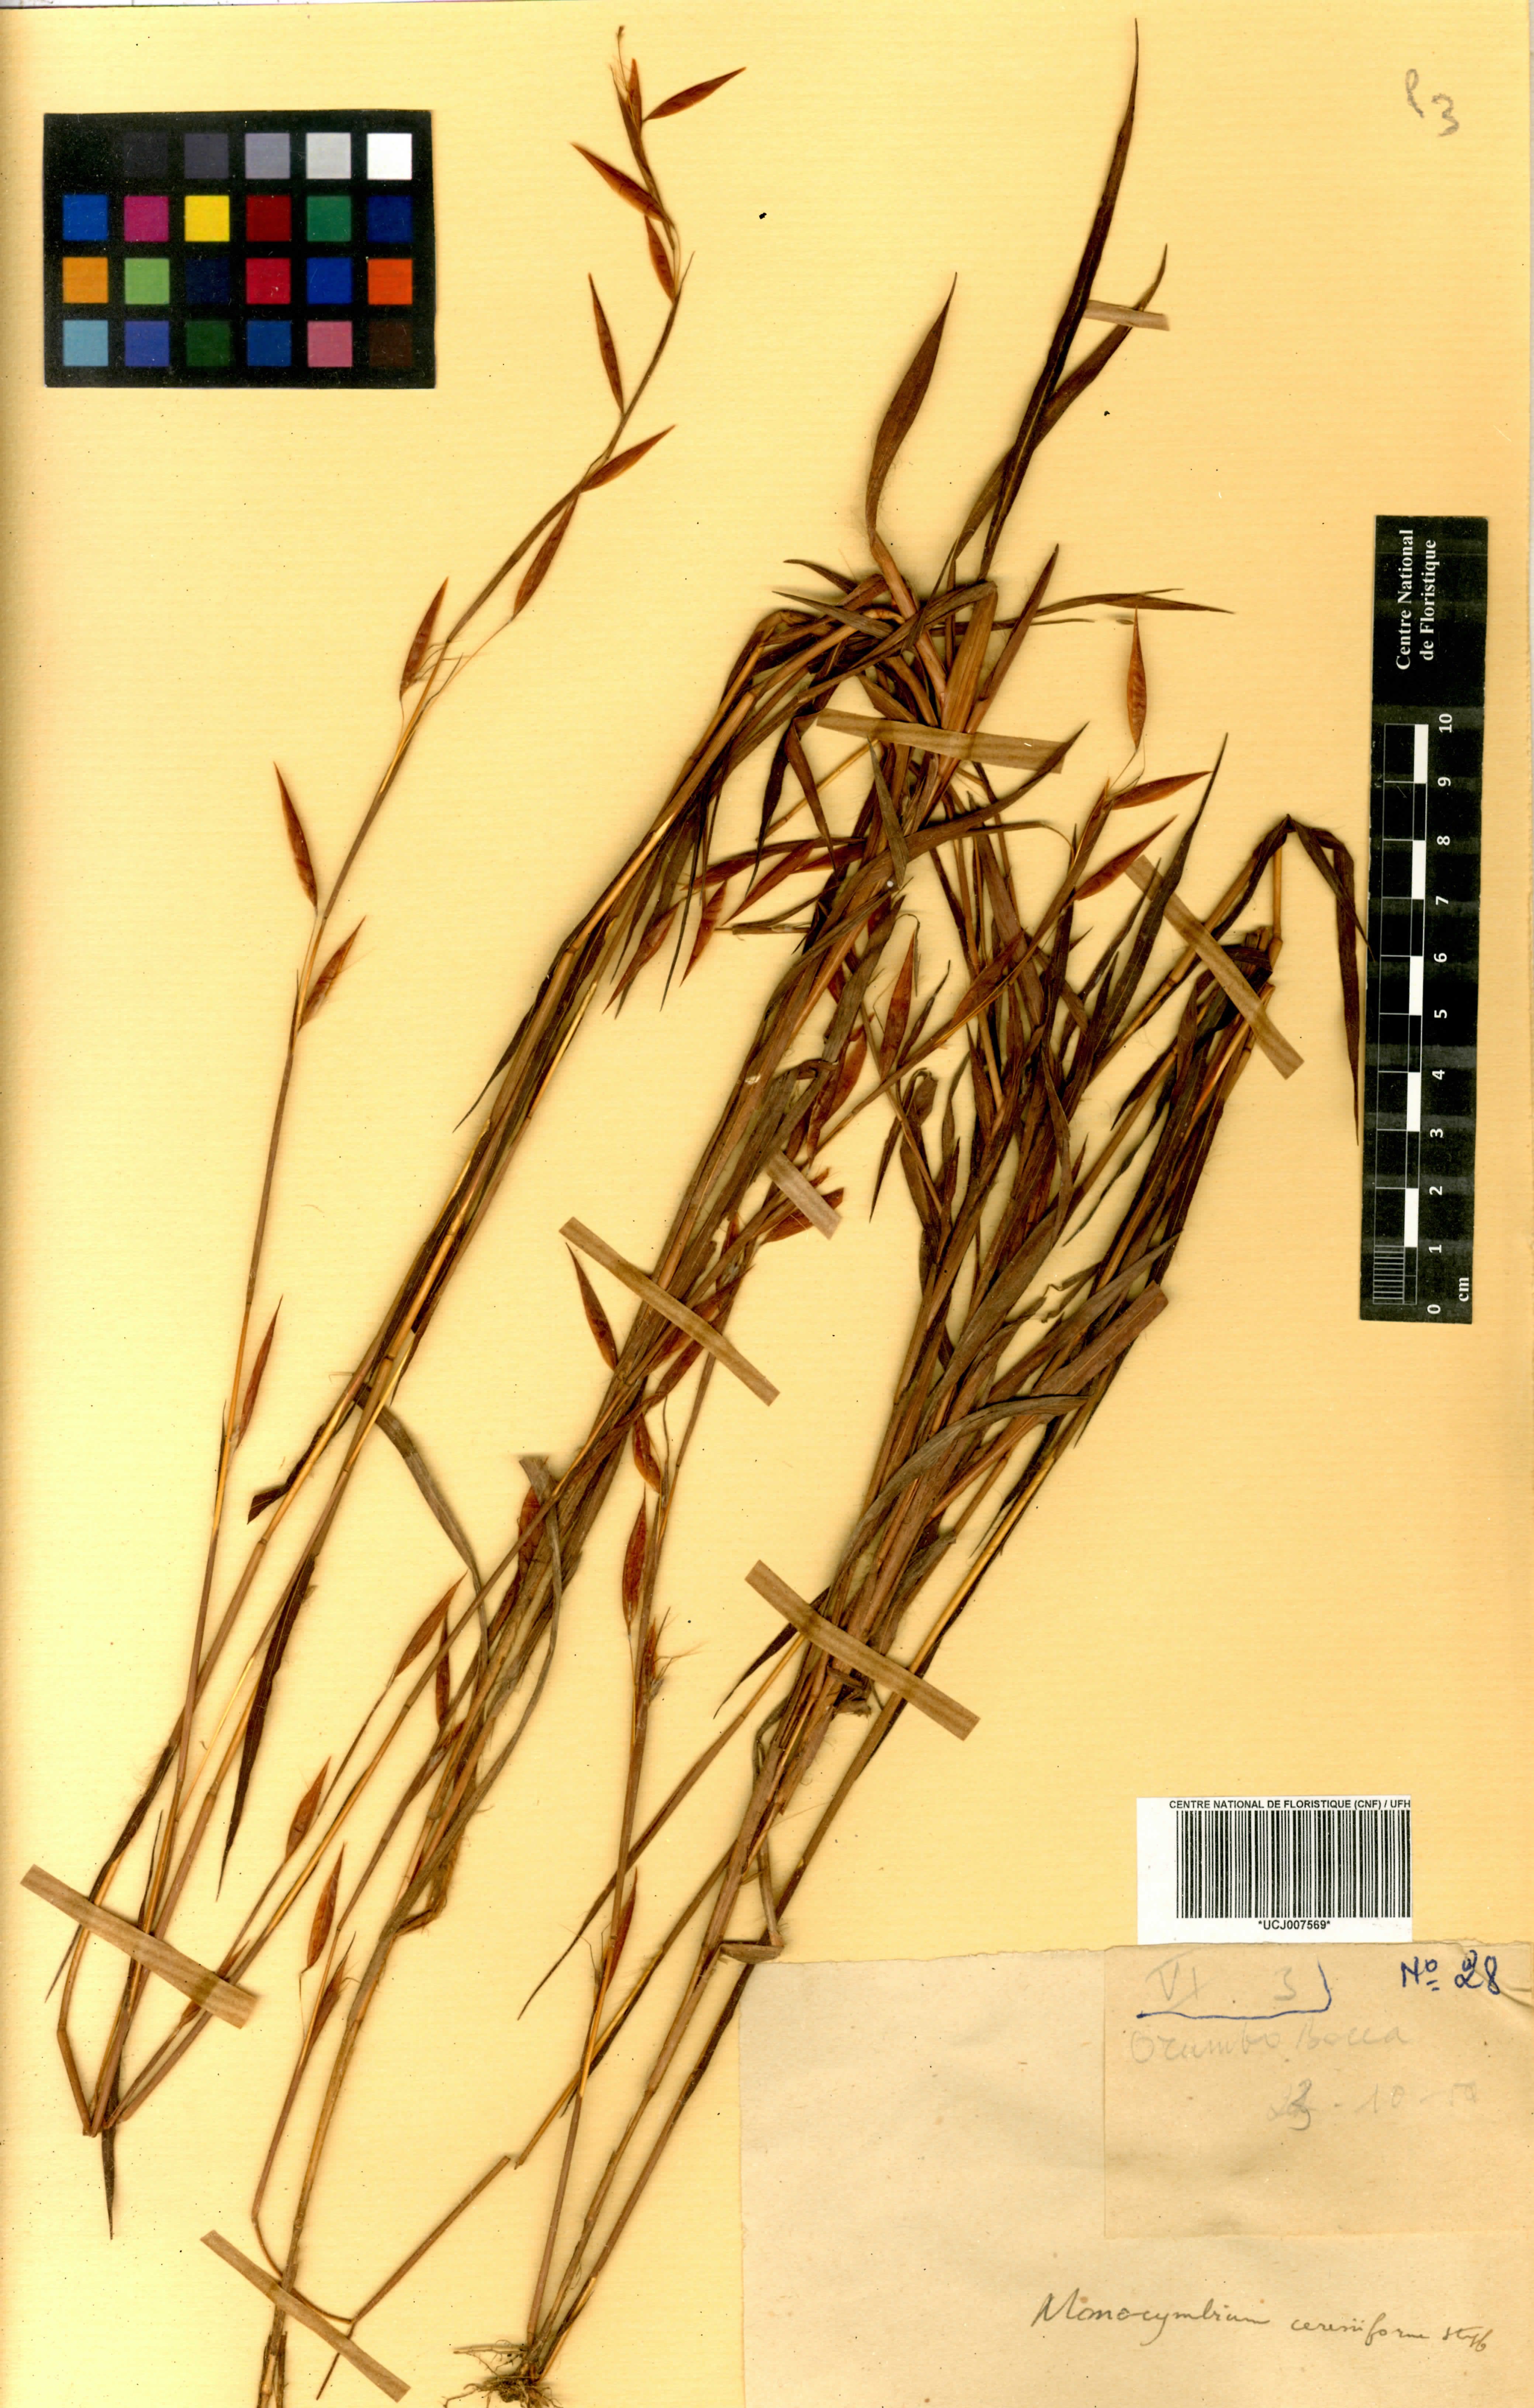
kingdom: Plantae
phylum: Tracheophyta
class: Liliopsida
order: Poales
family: Poaceae
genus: Monocymbium
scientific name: Monocymbium ceresiiforme
